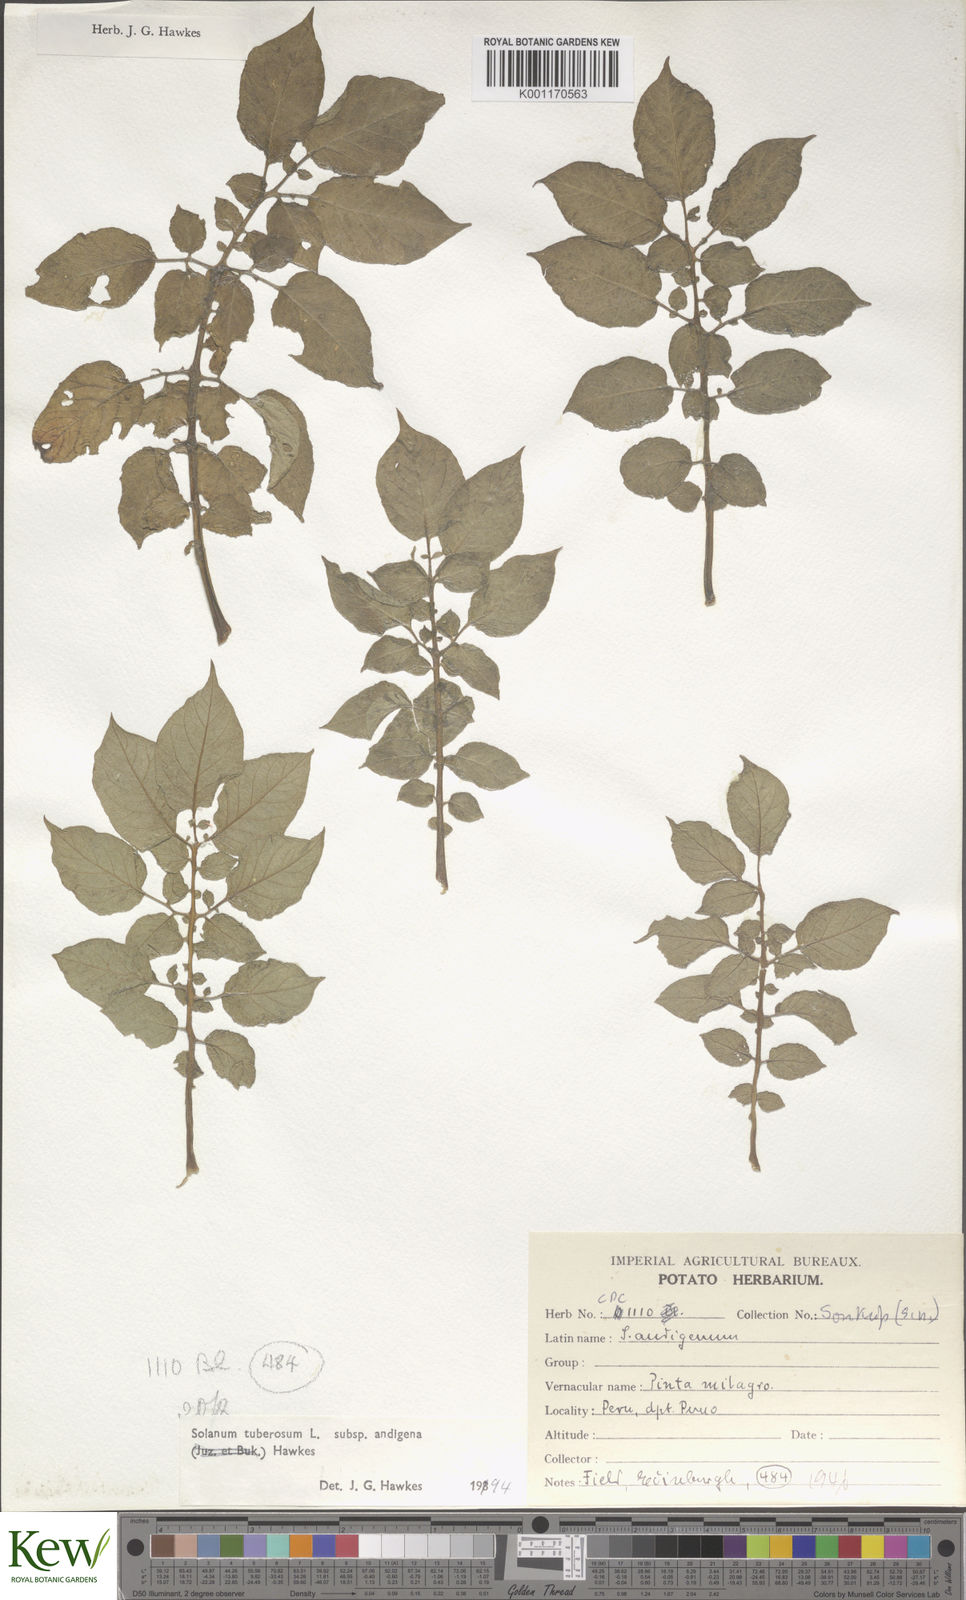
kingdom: Plantae
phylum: Tracheophyta
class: Magnoliopsida
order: Solanales
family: Solanaceae
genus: Solanum
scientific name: Solanum tuberosum
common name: Potato
